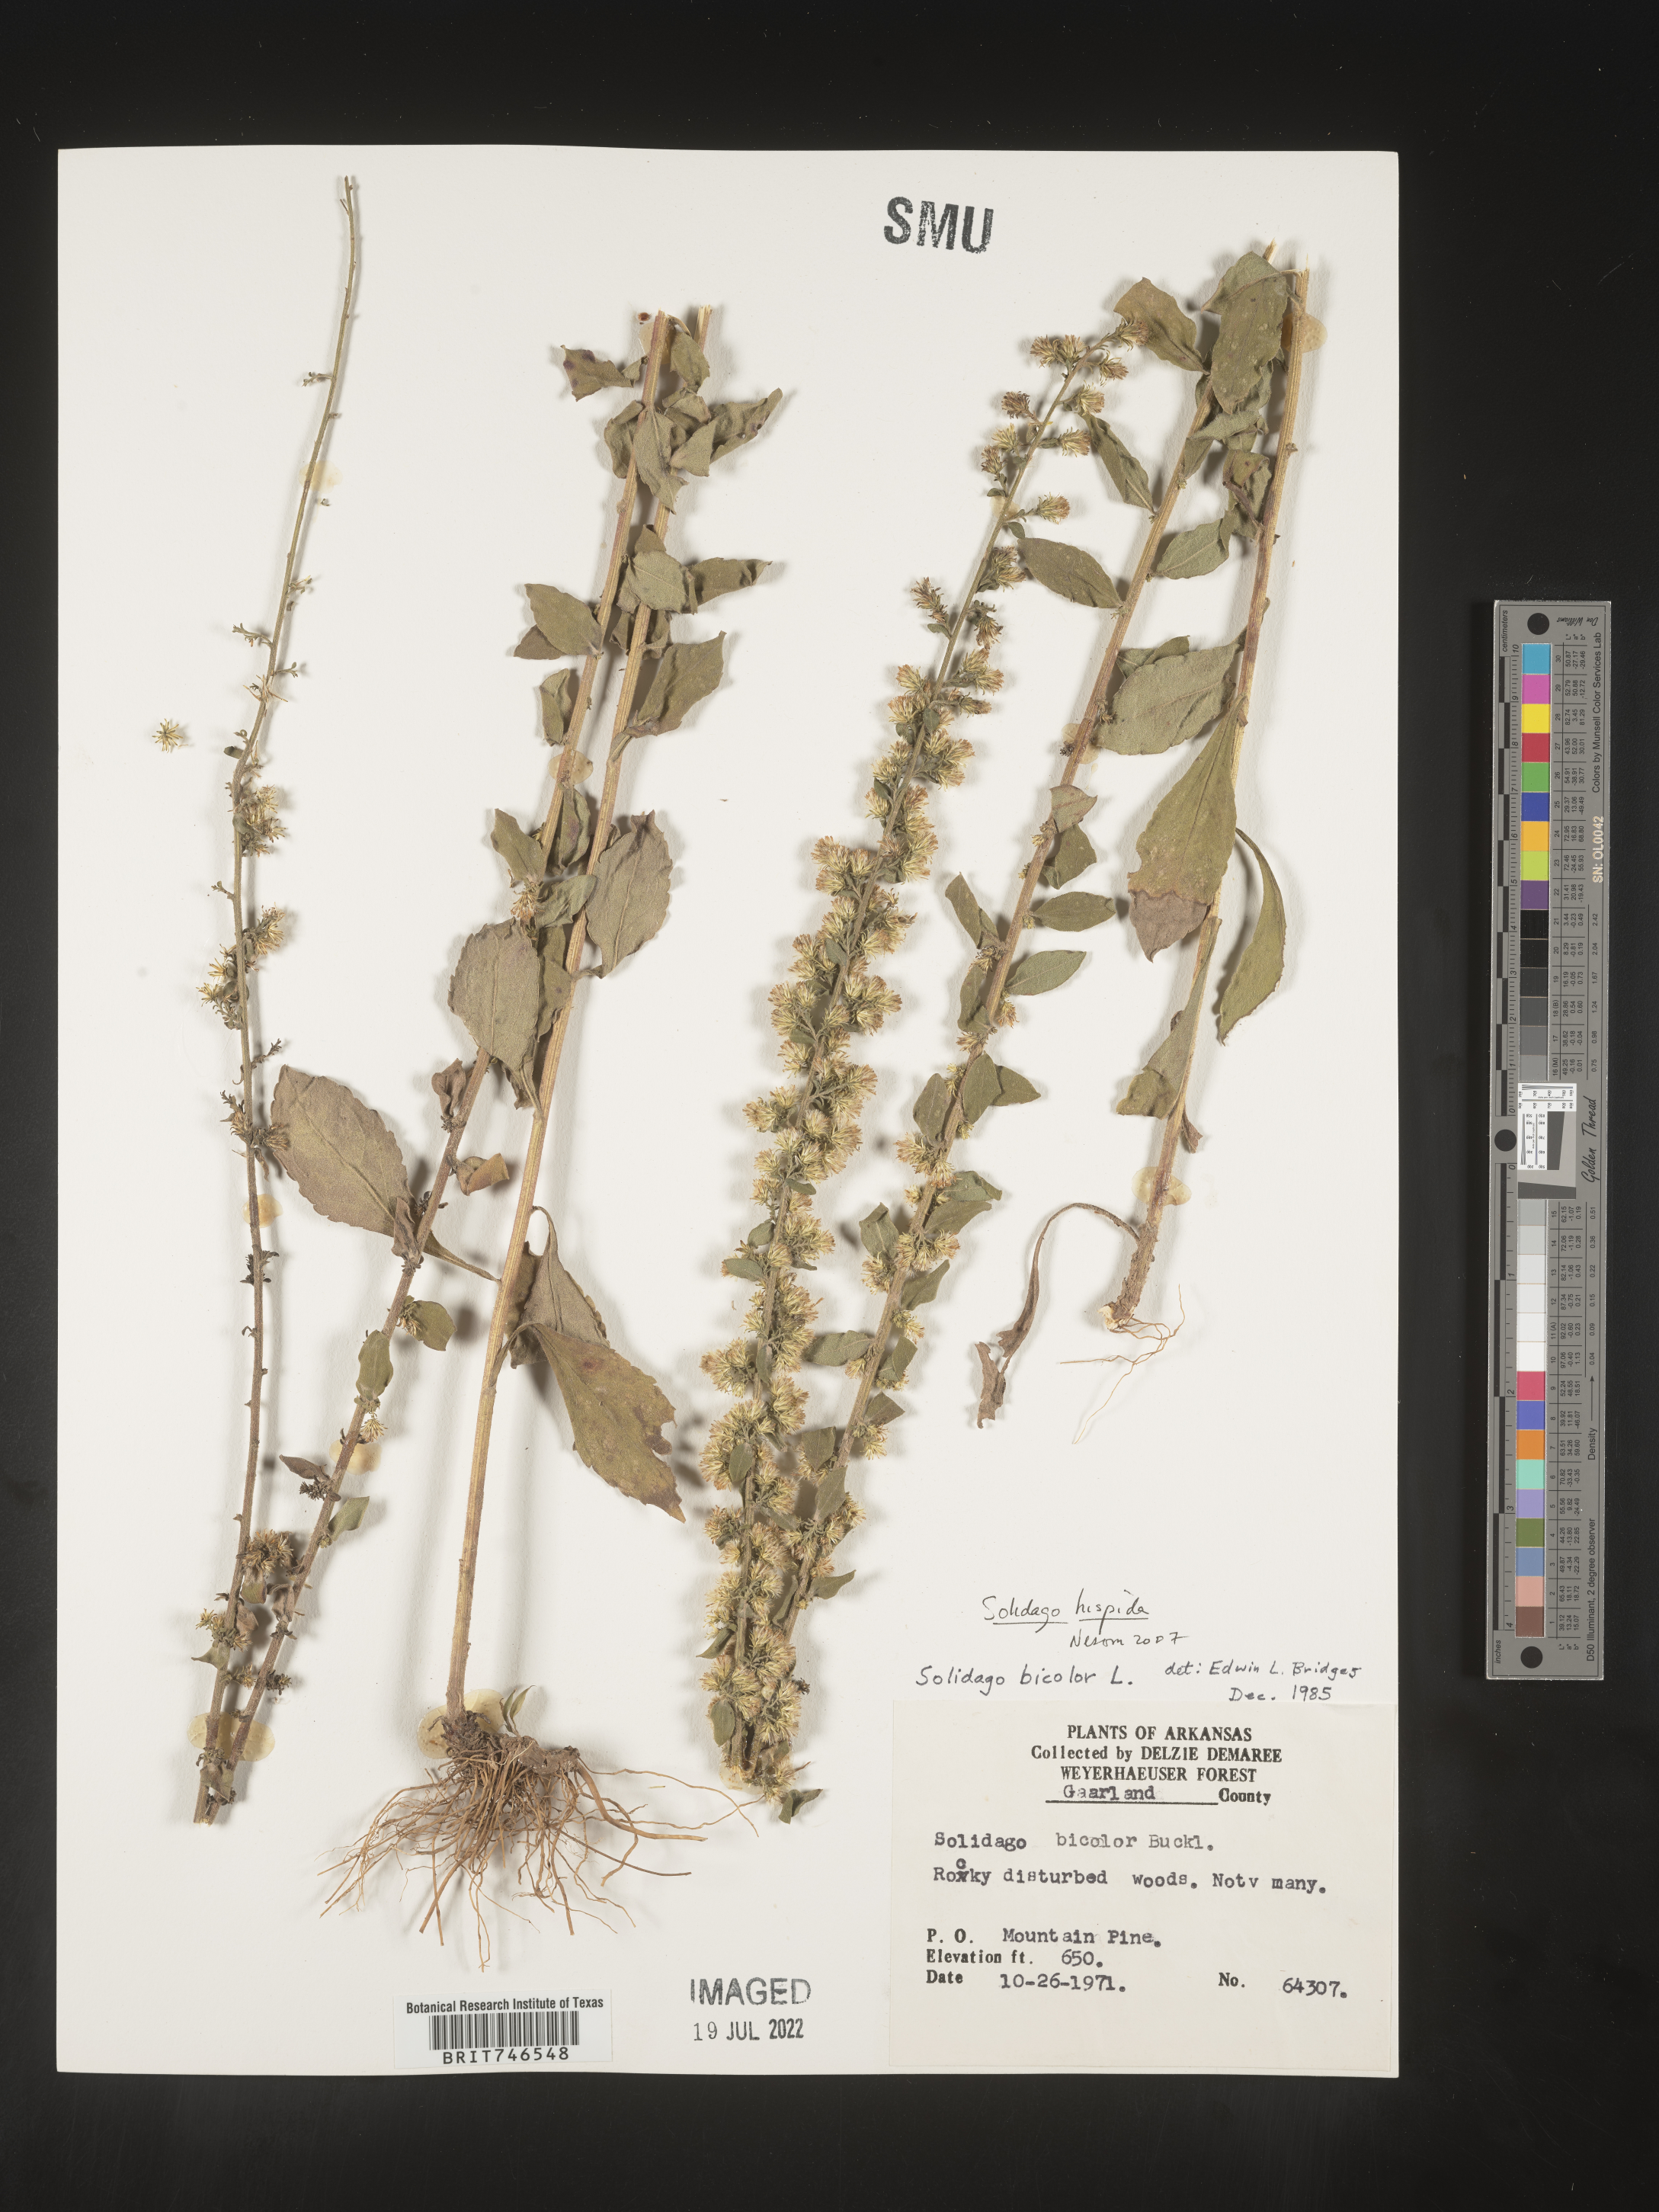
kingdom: Plantae
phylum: Tracheophyta
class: Magnoliopsida
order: Asterales
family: Asteraceae
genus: Solidago
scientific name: Solidago hispida
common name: Hairy goldenrod
